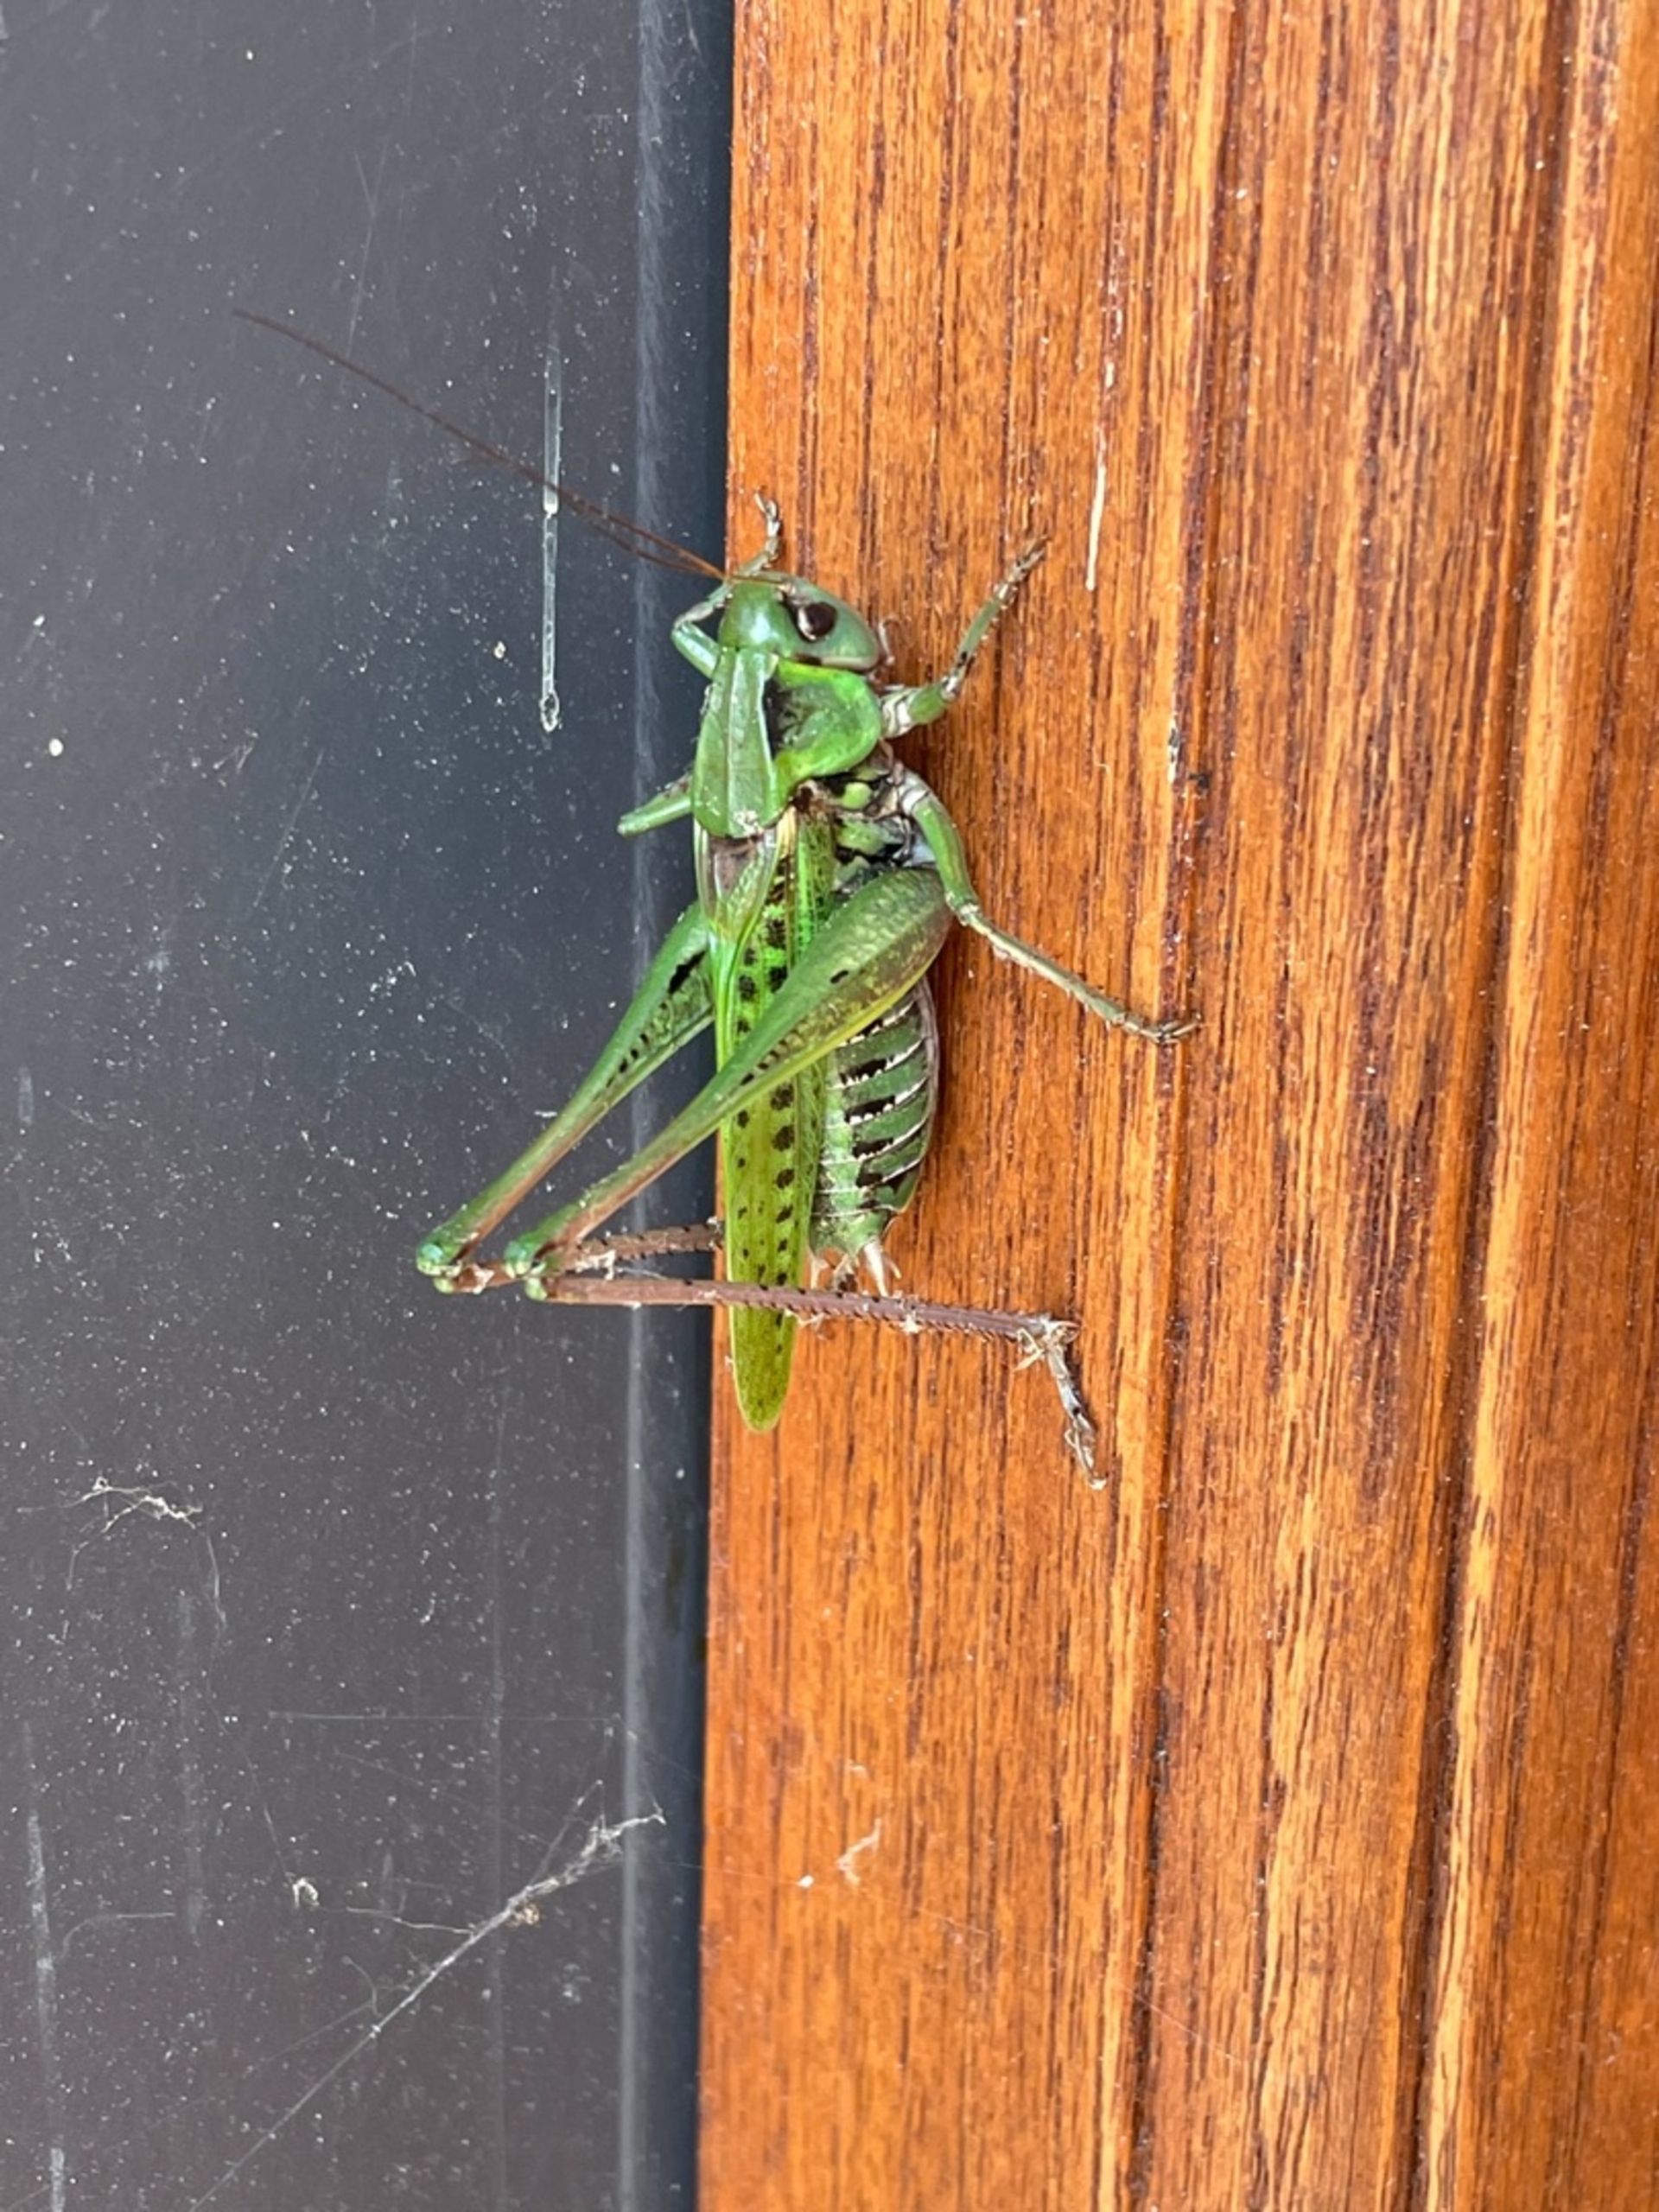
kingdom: Animalia
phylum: Arthropoda
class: Insecta
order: Orthoptera
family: Tettigoniidae
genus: Decticus
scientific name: Decticus verrucivorus
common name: Vortebider
